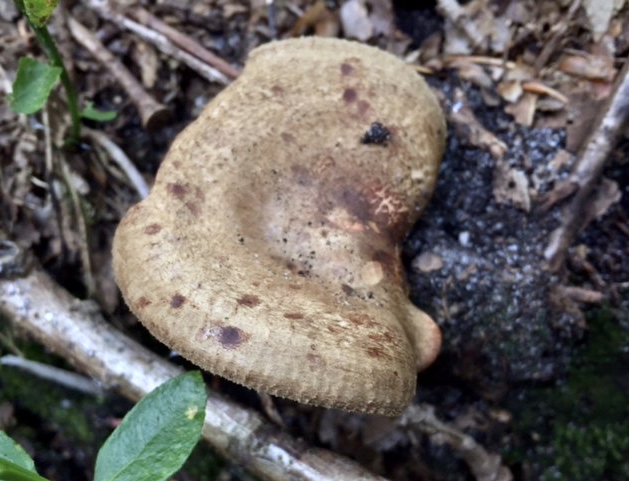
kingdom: Fungi
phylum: Basidiomycota
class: Agaricomycetes
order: Boletales
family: Paxillaceae
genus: Paxillus
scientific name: Paxillus involutus
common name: almindelig netbladhat
